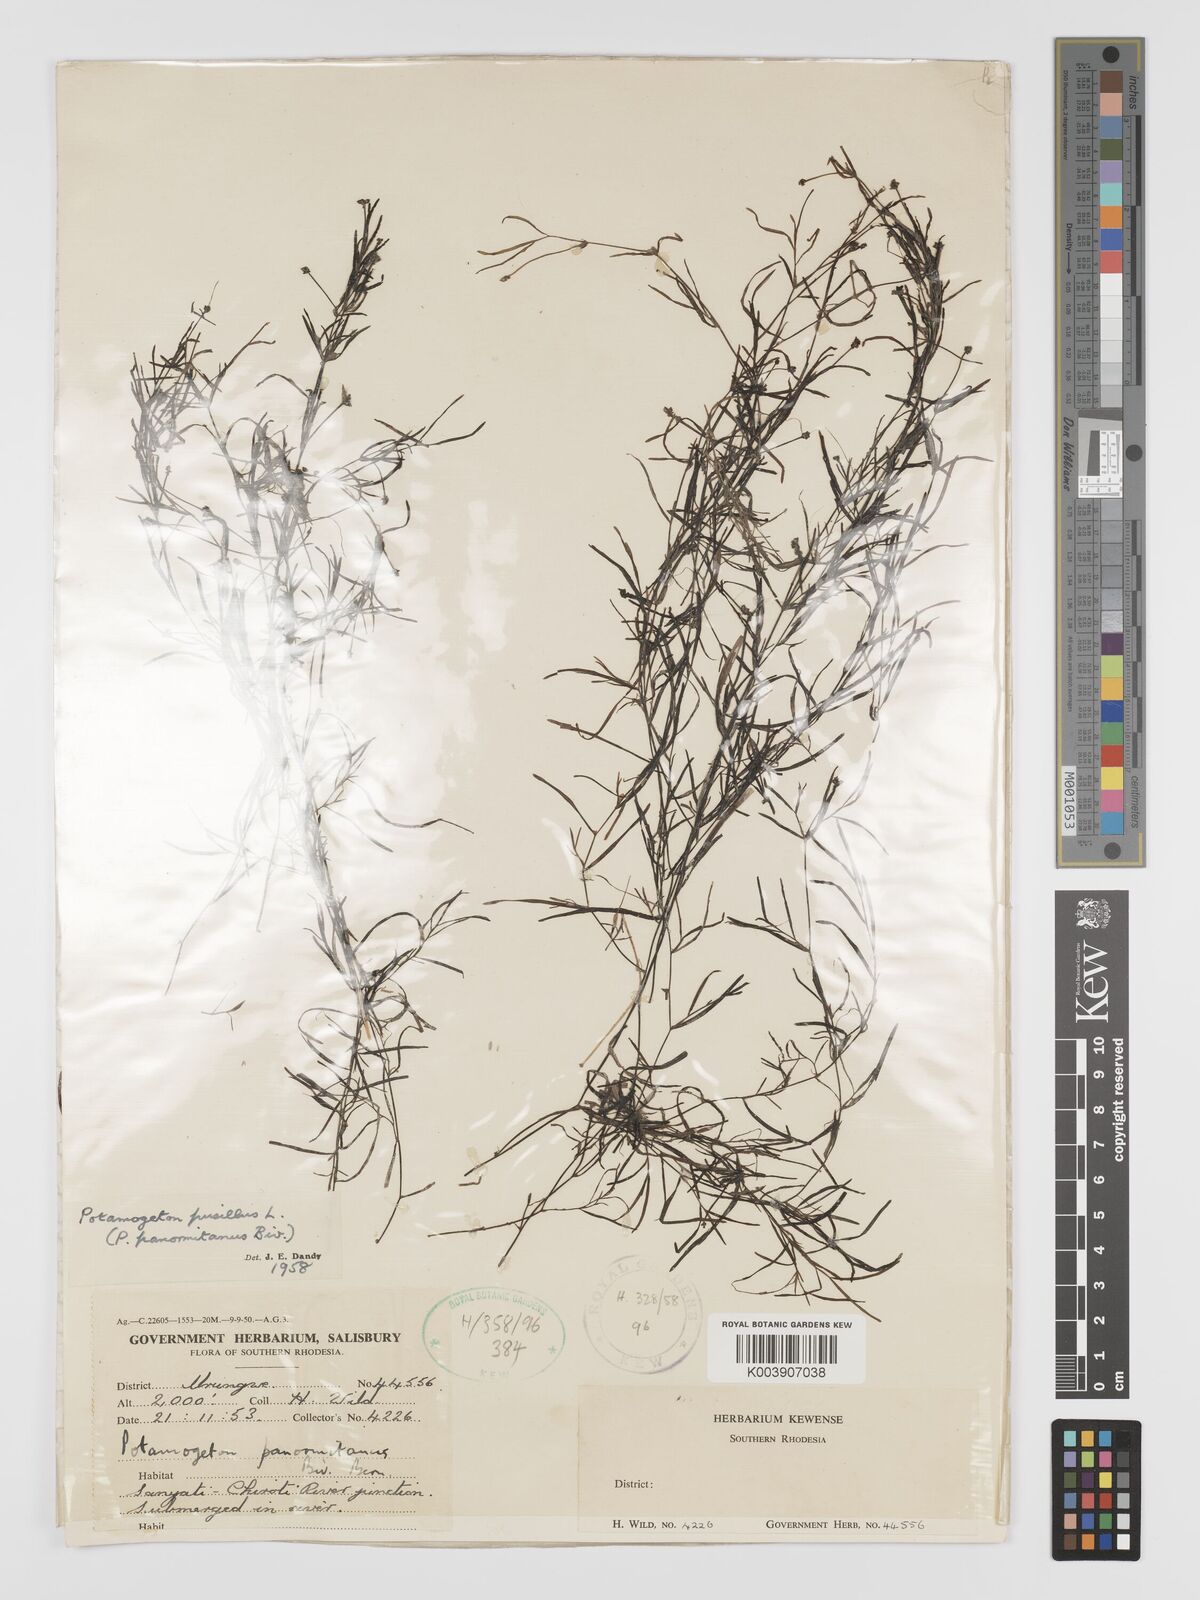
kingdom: Plantae
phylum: Tracheophyta
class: Liliopsida
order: Alismatales
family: Potamogetonaceae
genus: Potamogeton
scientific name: Potamogeton pusillus
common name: Lesser pondweed
